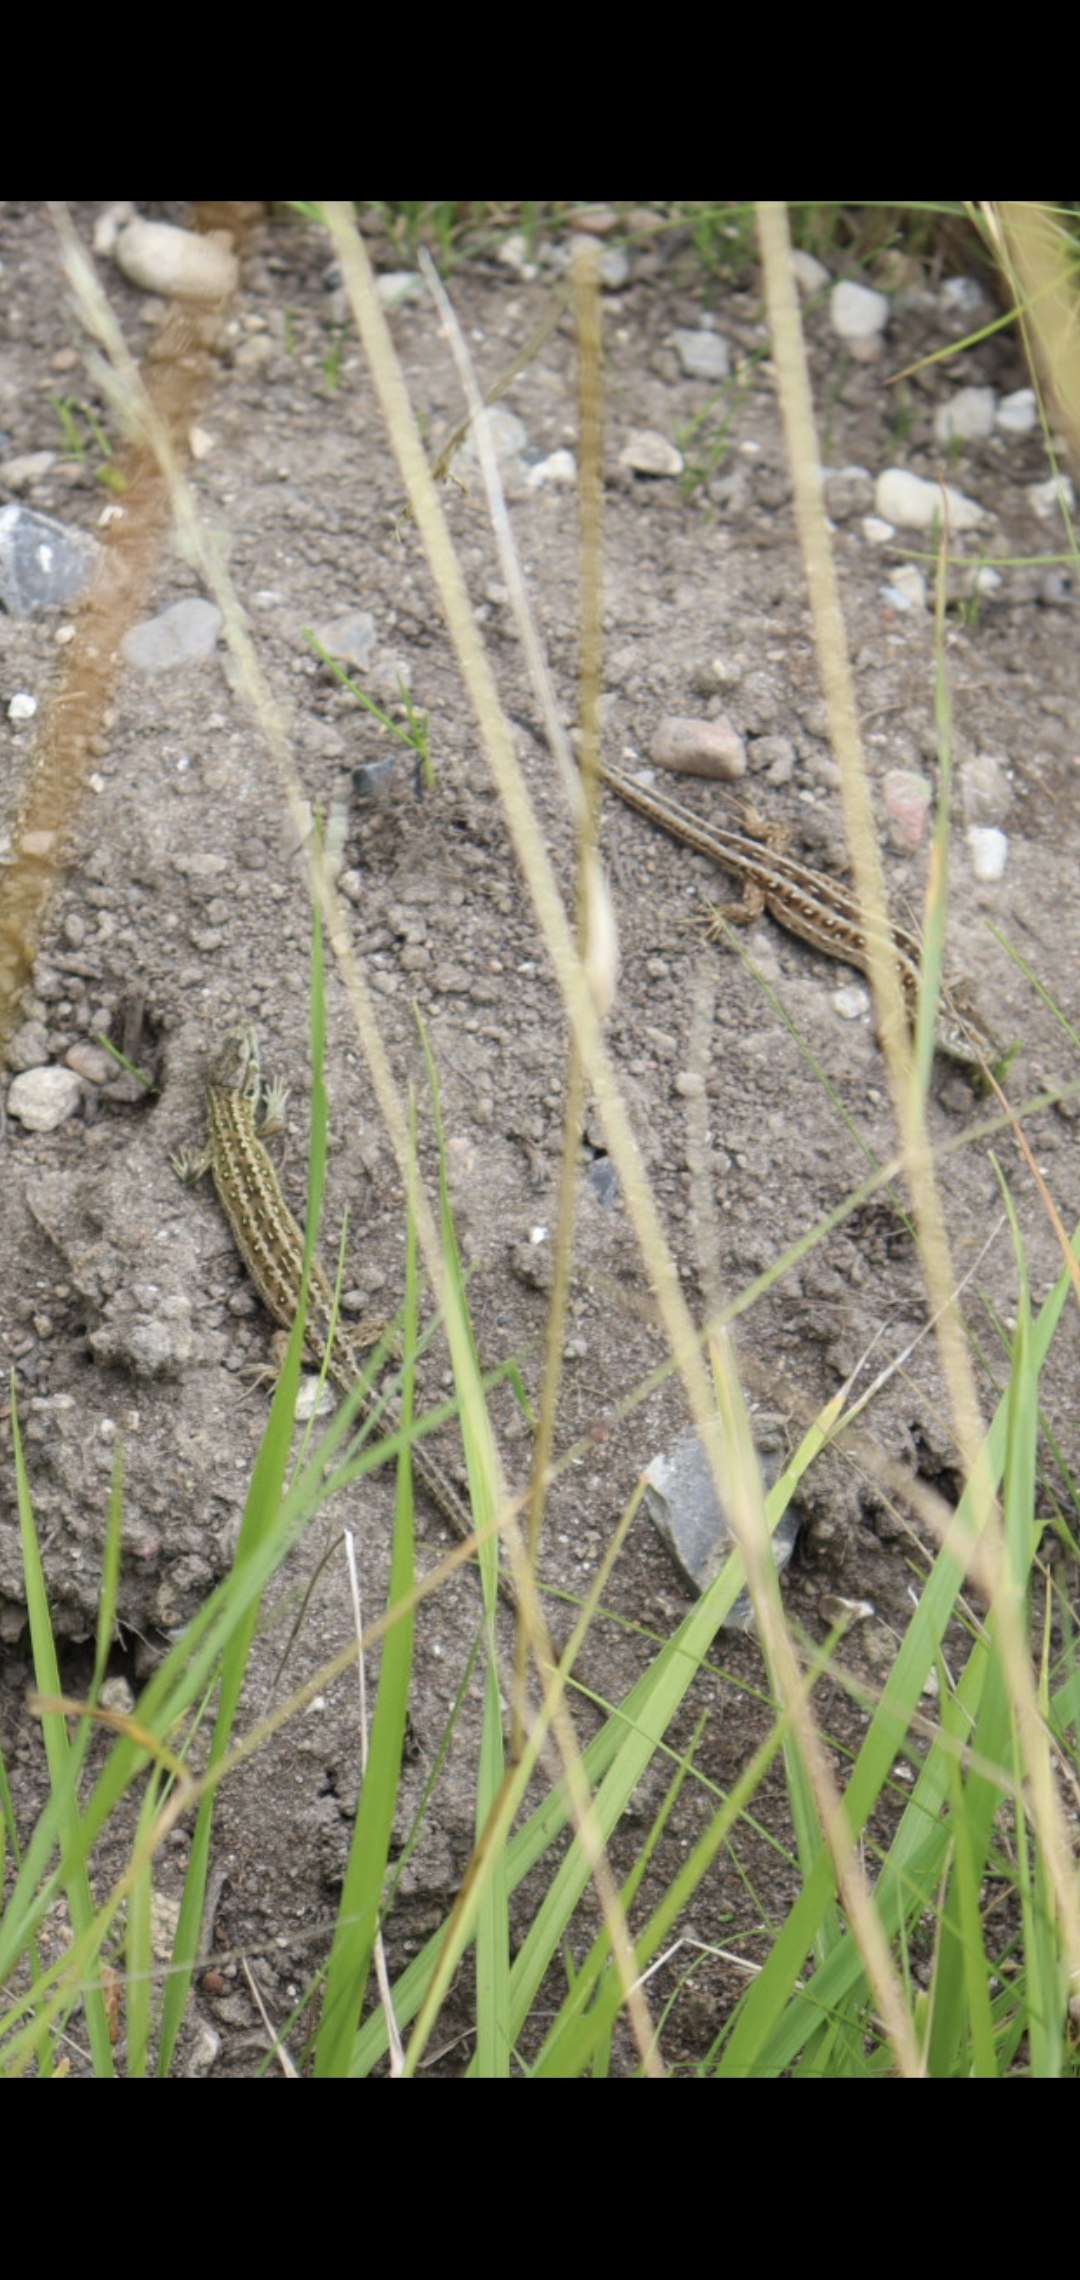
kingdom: Animalia
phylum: Chordata
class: Squamata
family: Lacertidae
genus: Lacerta
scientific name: Lacerta agilis
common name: Markfirben
